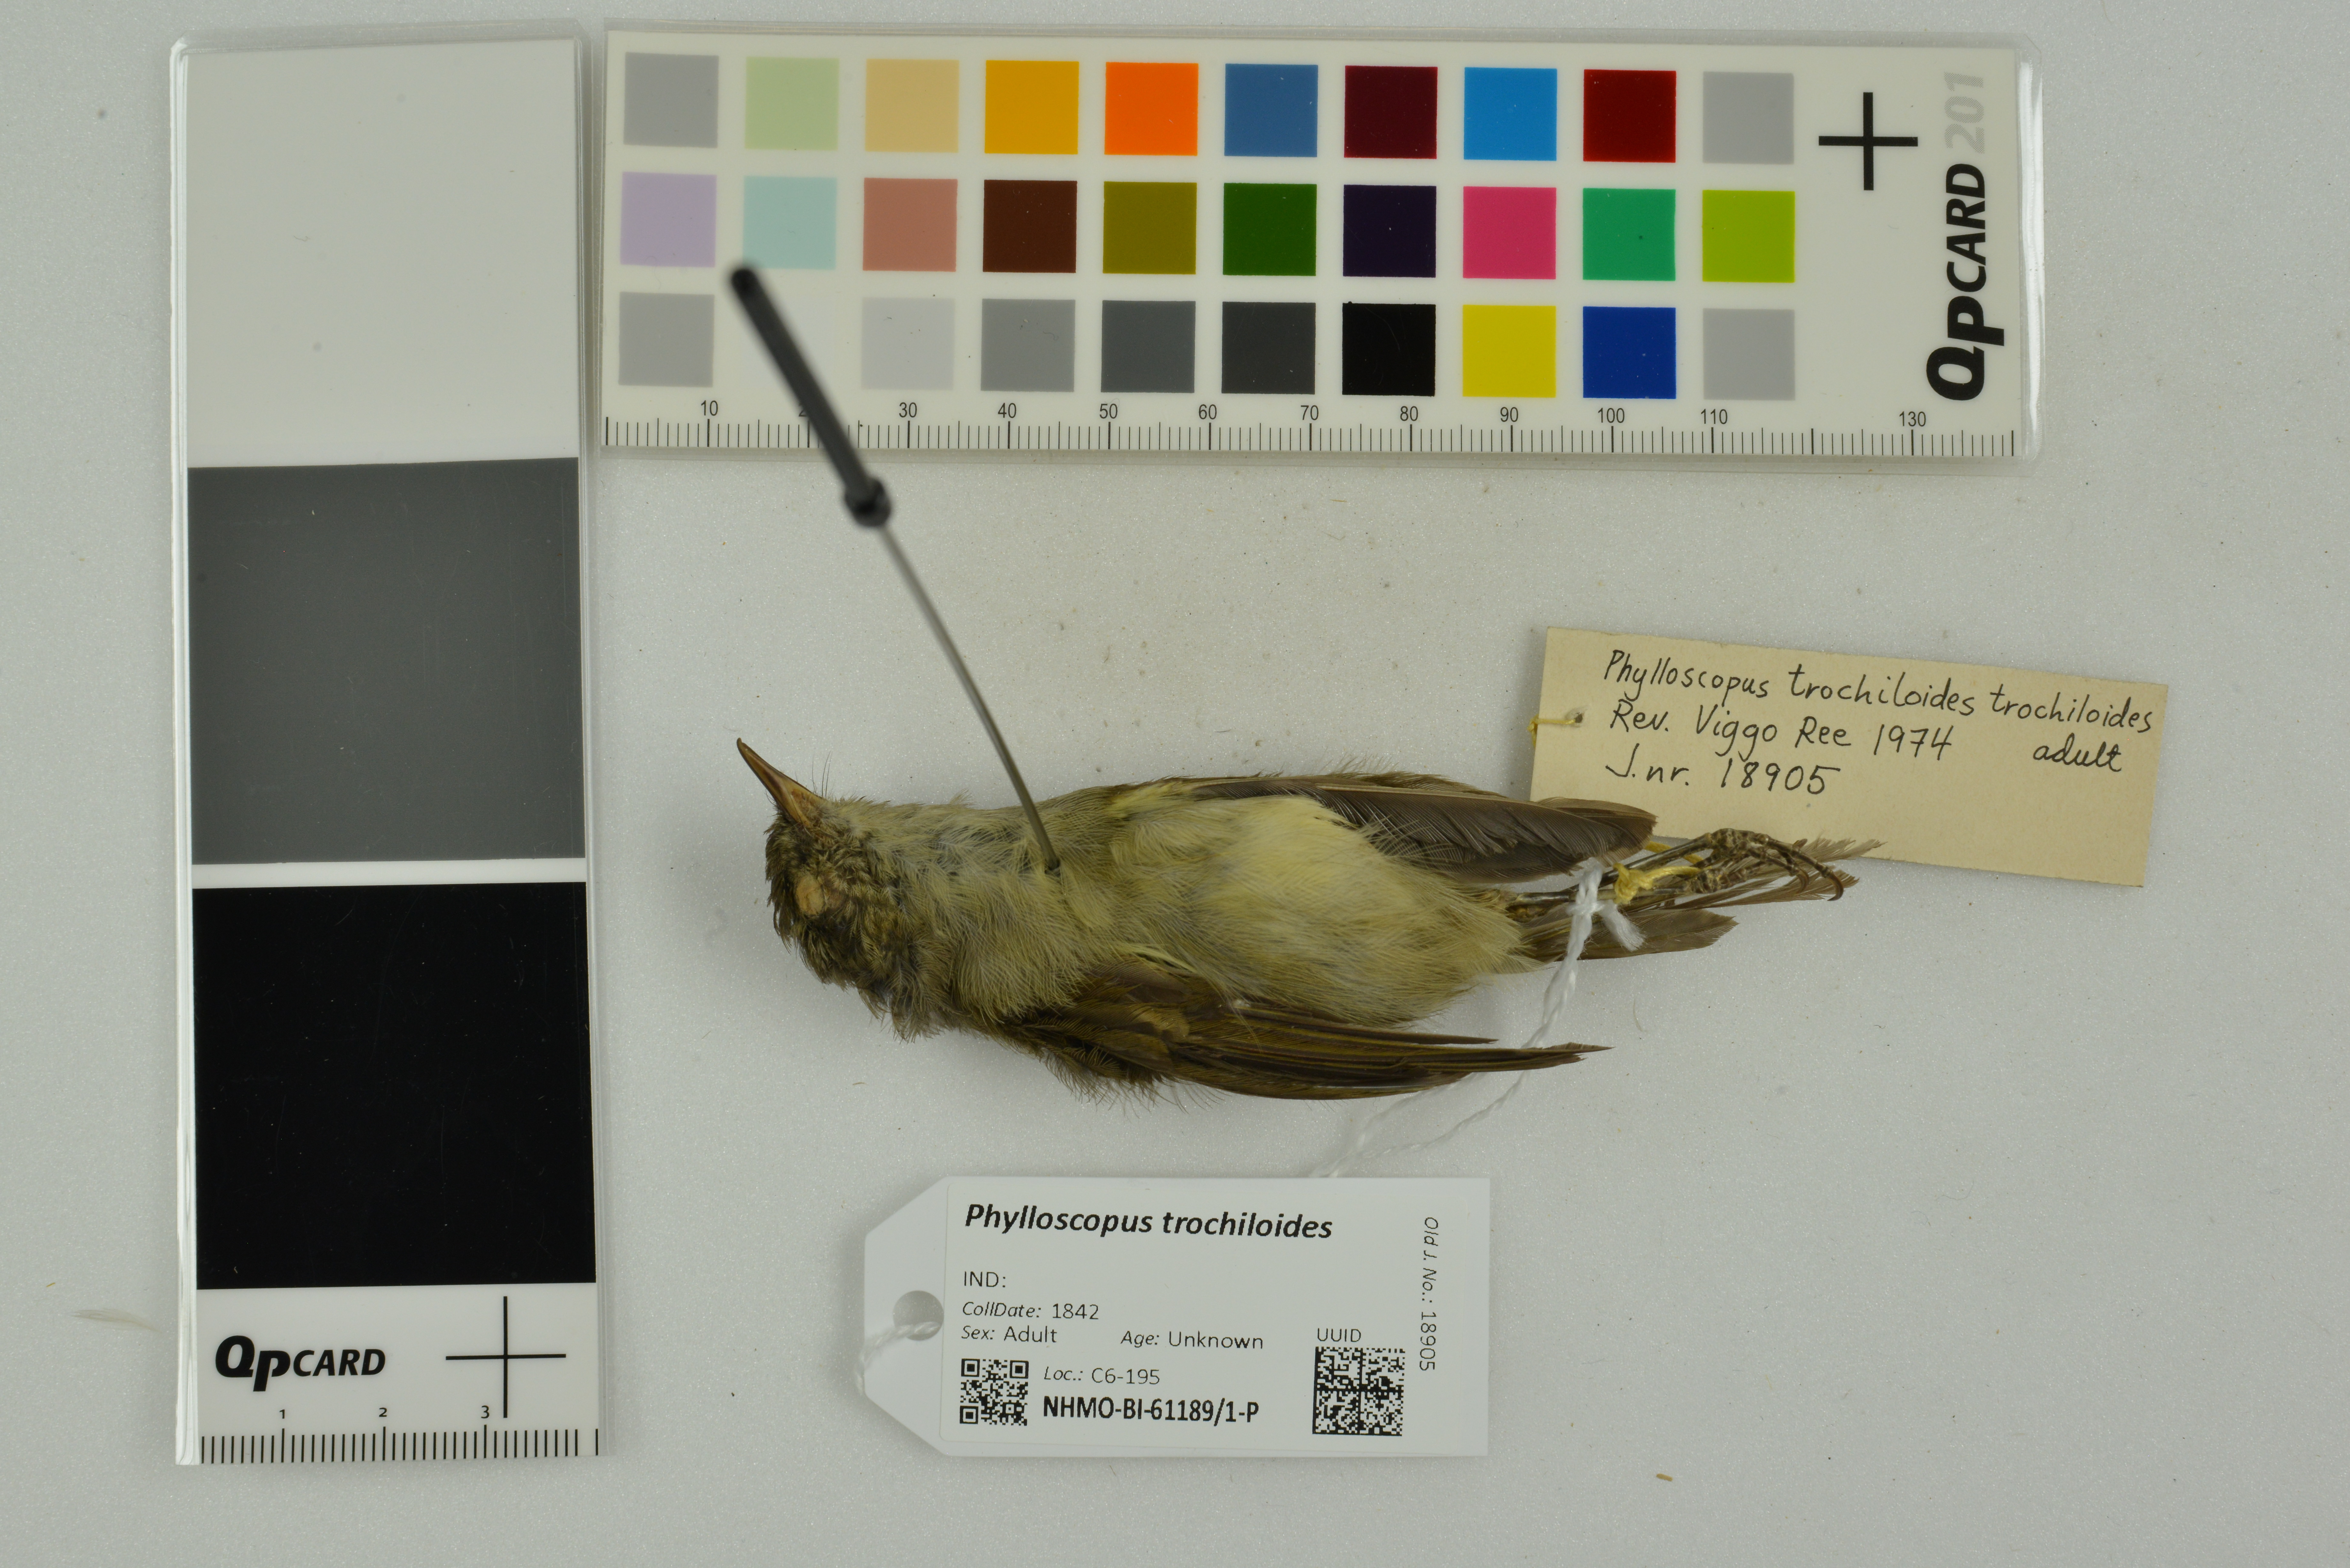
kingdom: Animalia
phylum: Chordata
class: Aves
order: Passeriformes
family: Phylloscopidae
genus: Phylloscopus
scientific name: Phylloscopus trochiloides
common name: Greenish warbler
